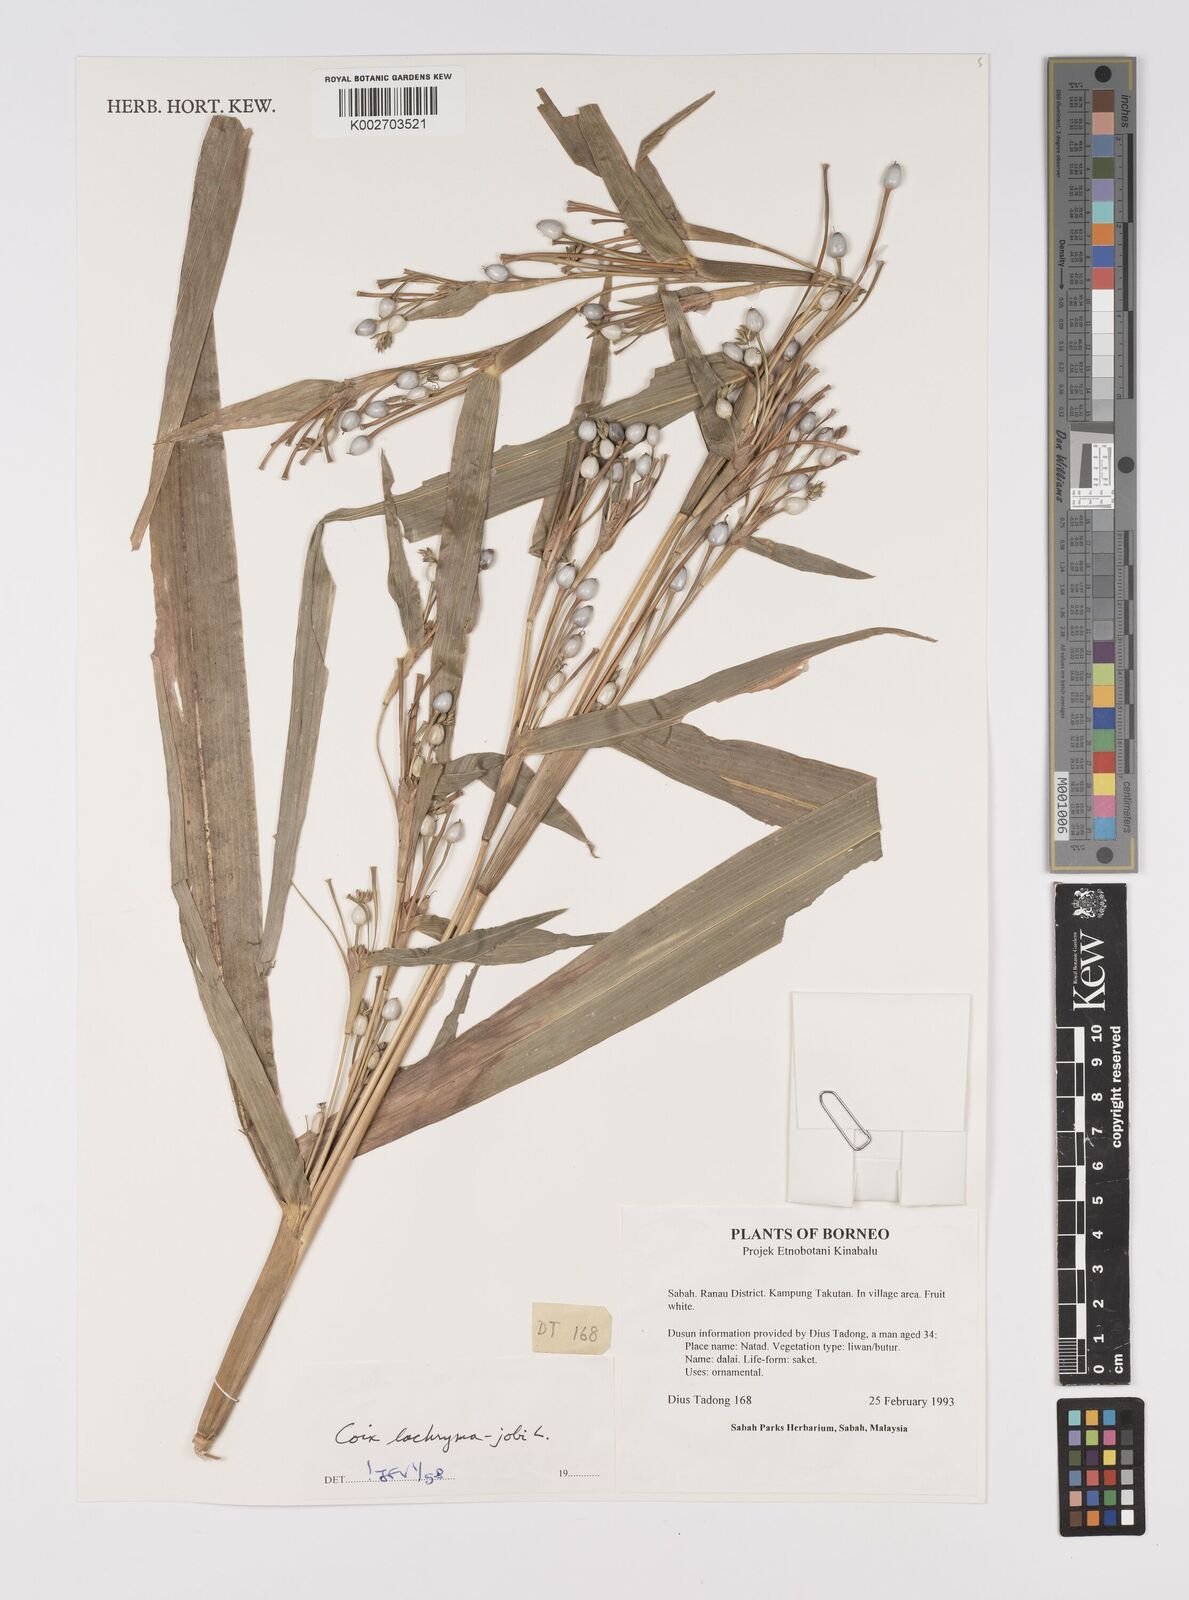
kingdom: Plantae
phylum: Tracheophyta
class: Liliopsida
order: Poales
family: Poaceae
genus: Coix
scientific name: Coix lacryma-jobi
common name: Job's tears
